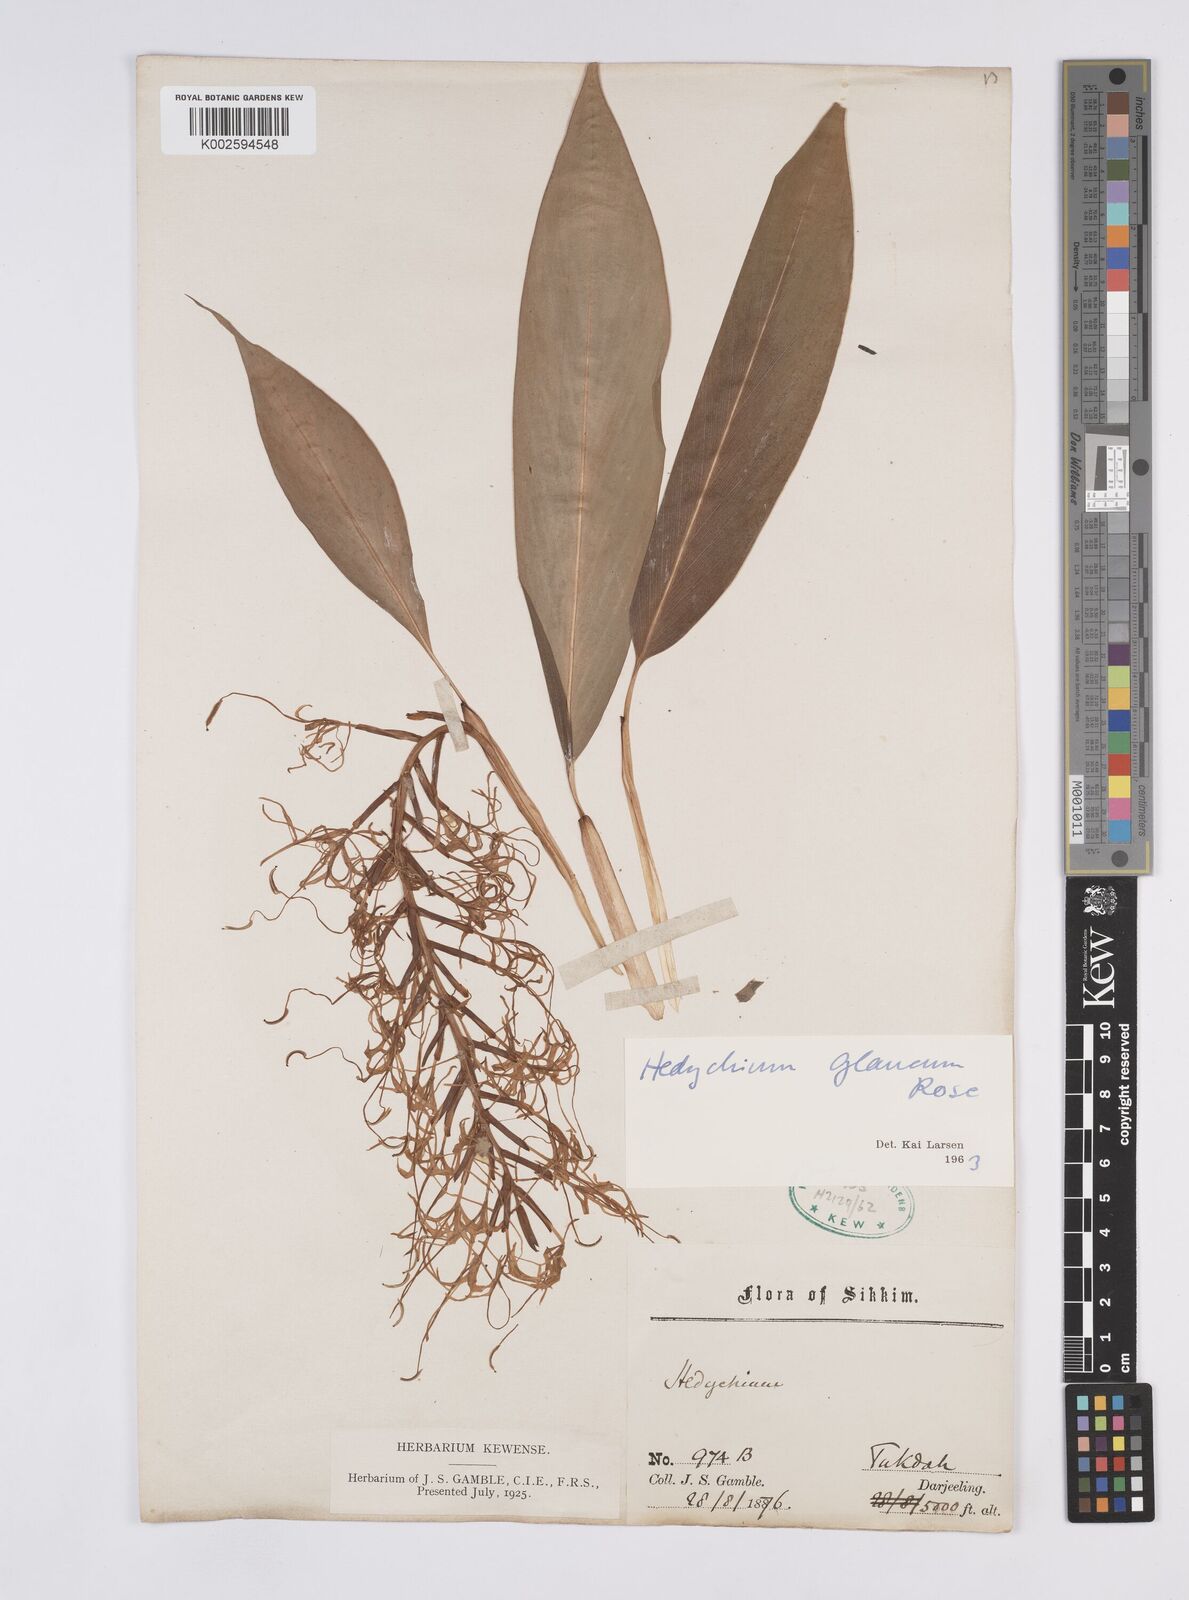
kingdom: Plantae
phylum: Tracheophyta
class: Liliopsida
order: Zingiberales
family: Zingiberaceae
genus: Hedychium
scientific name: Hedychium glaucum
